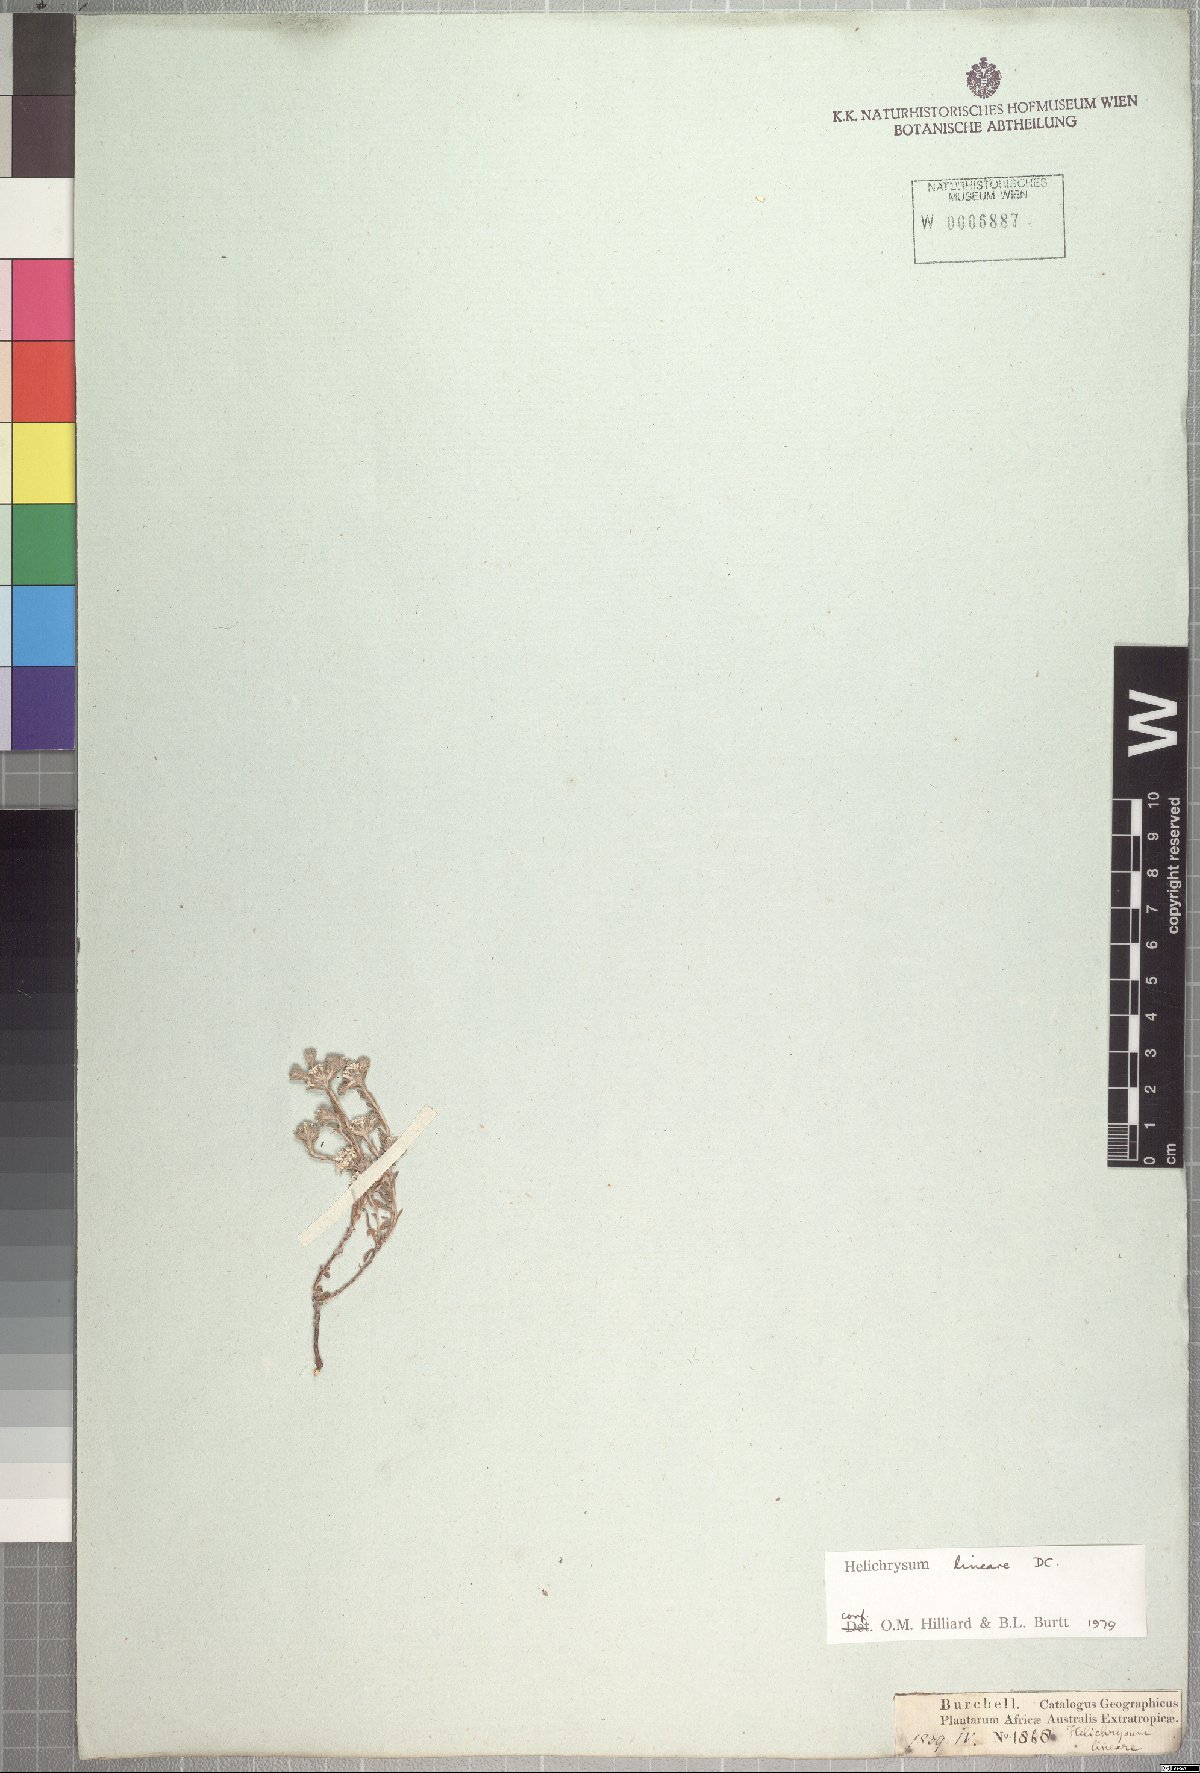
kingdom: Plantae
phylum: Tracheophyta
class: Magnoliopsida
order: Asterales
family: Asteraceae
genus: Helichrysum
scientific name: Helichrysum lineare
